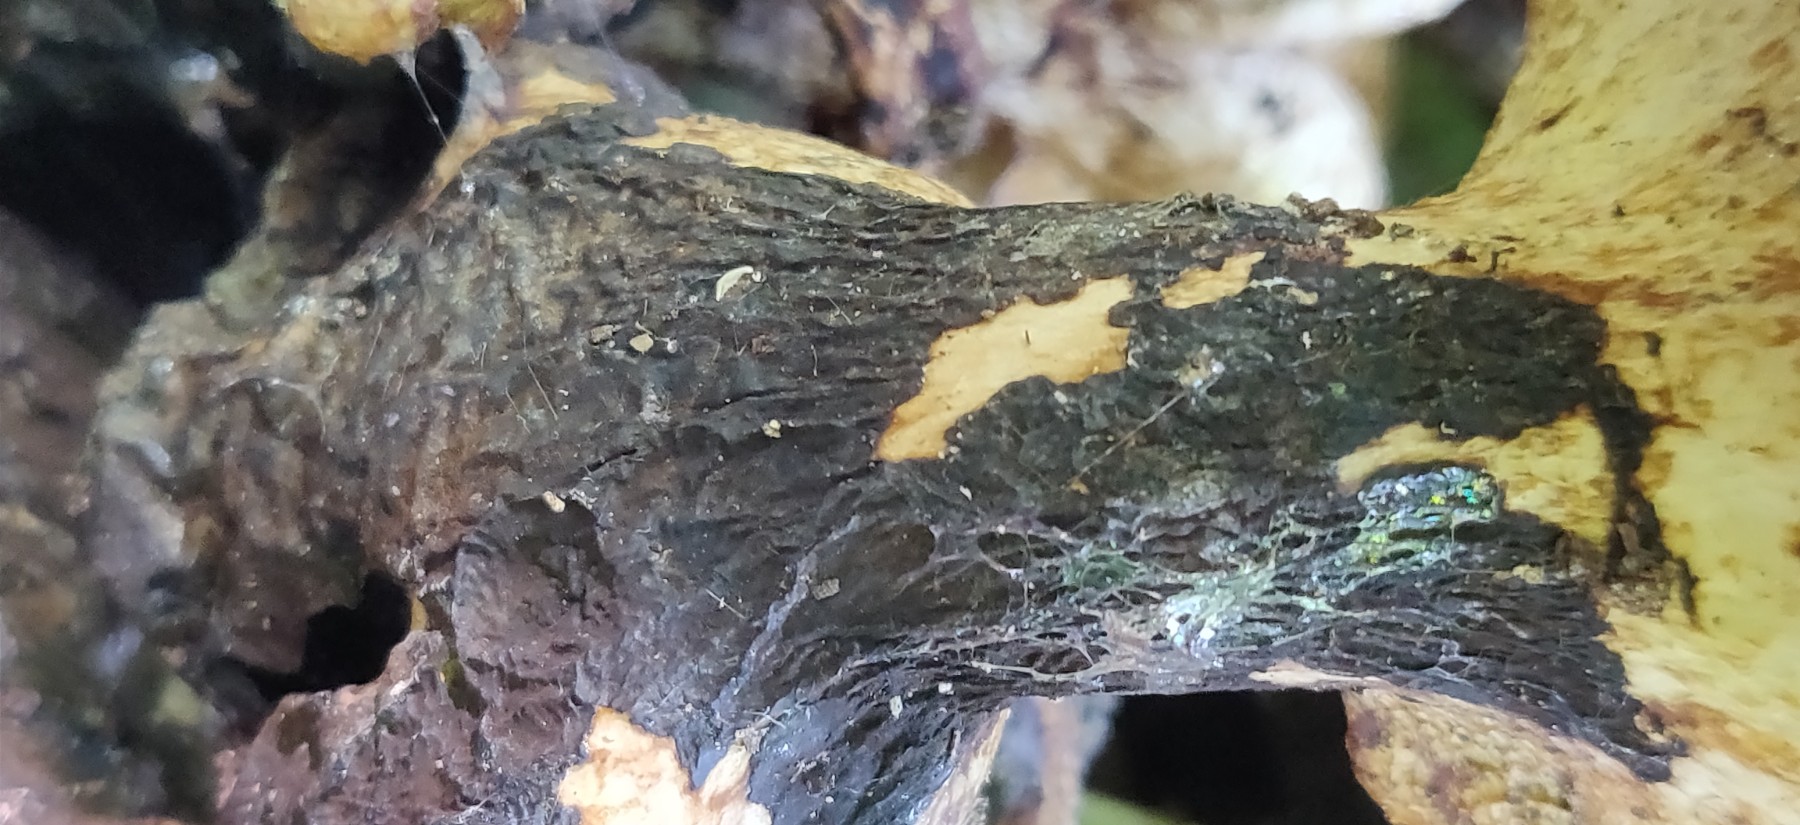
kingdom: Fungi
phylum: Basidiomycota
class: Agaricomycetes
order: Polyporales
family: Polyporaceae
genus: Cerioporus
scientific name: Cerioporus squamosus
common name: skællet stilkporesvamp
